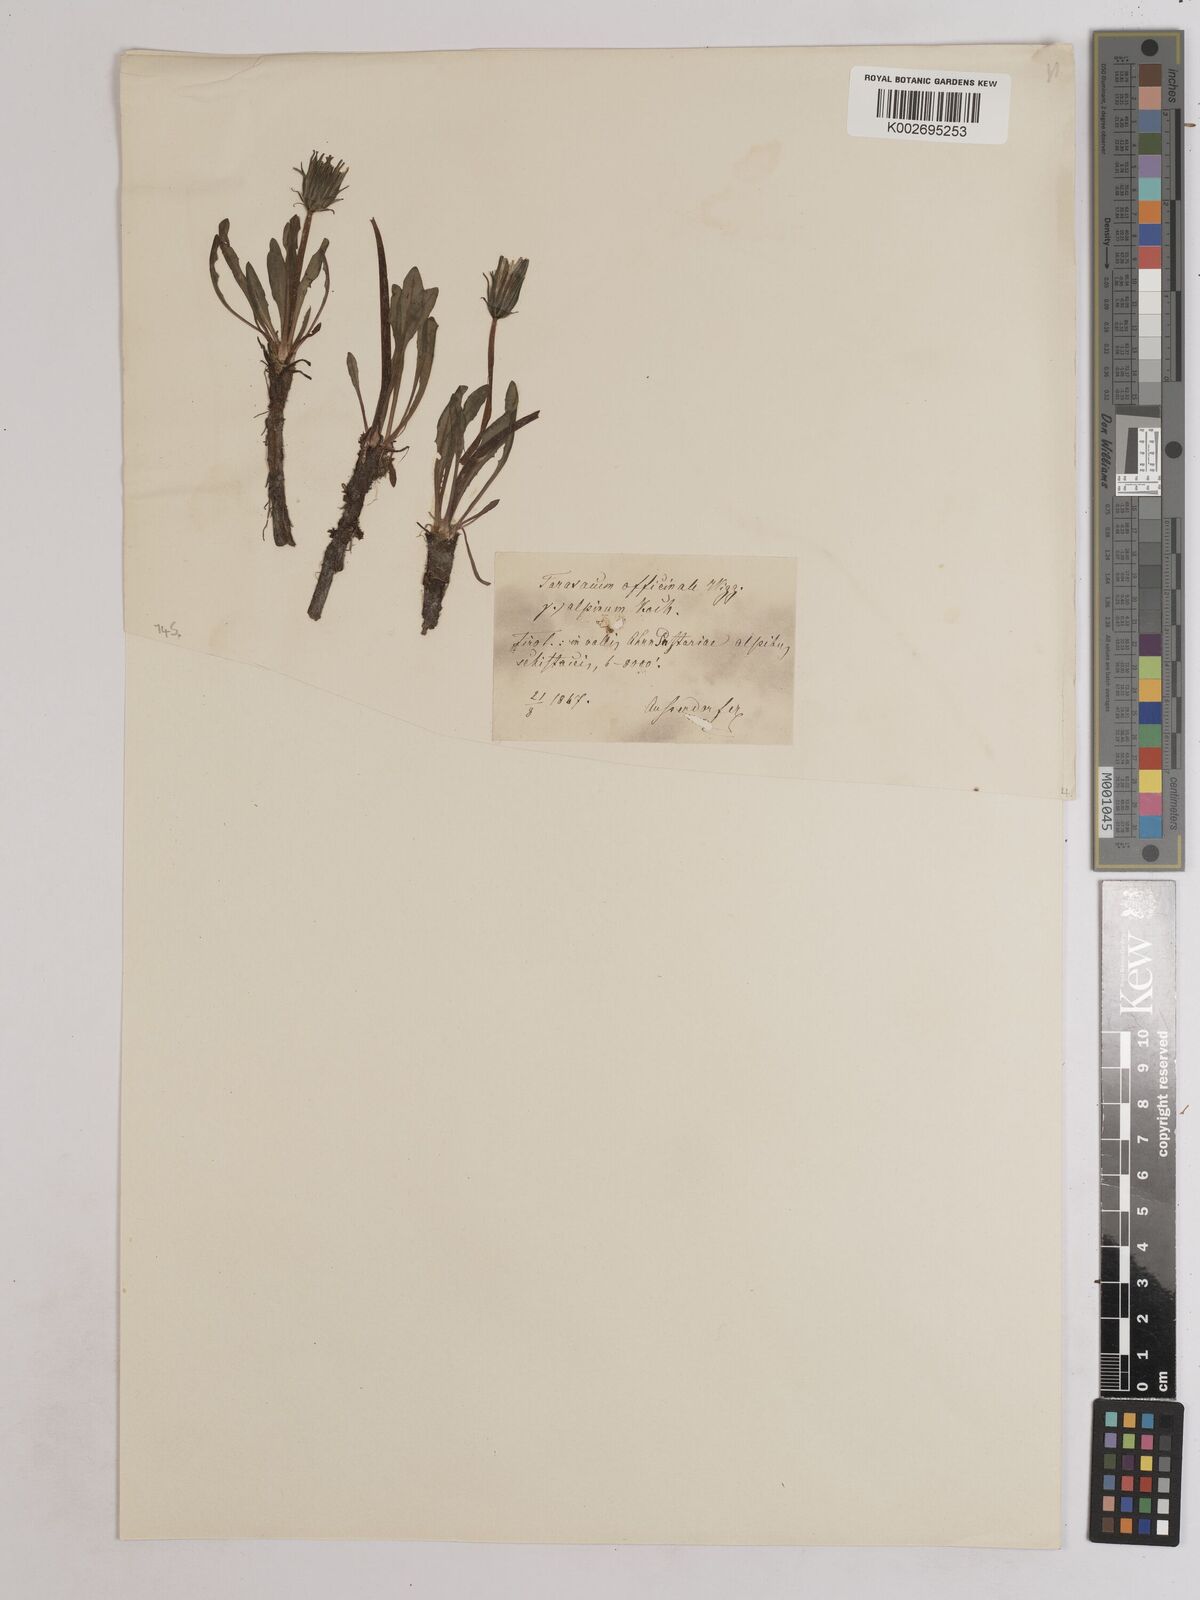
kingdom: Plantae
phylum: Tracheophyta
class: Magnoliopsida
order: Asterales
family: Asteraceae
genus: Taraxacum
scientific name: Taraxacum officinale
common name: Common dandelion
